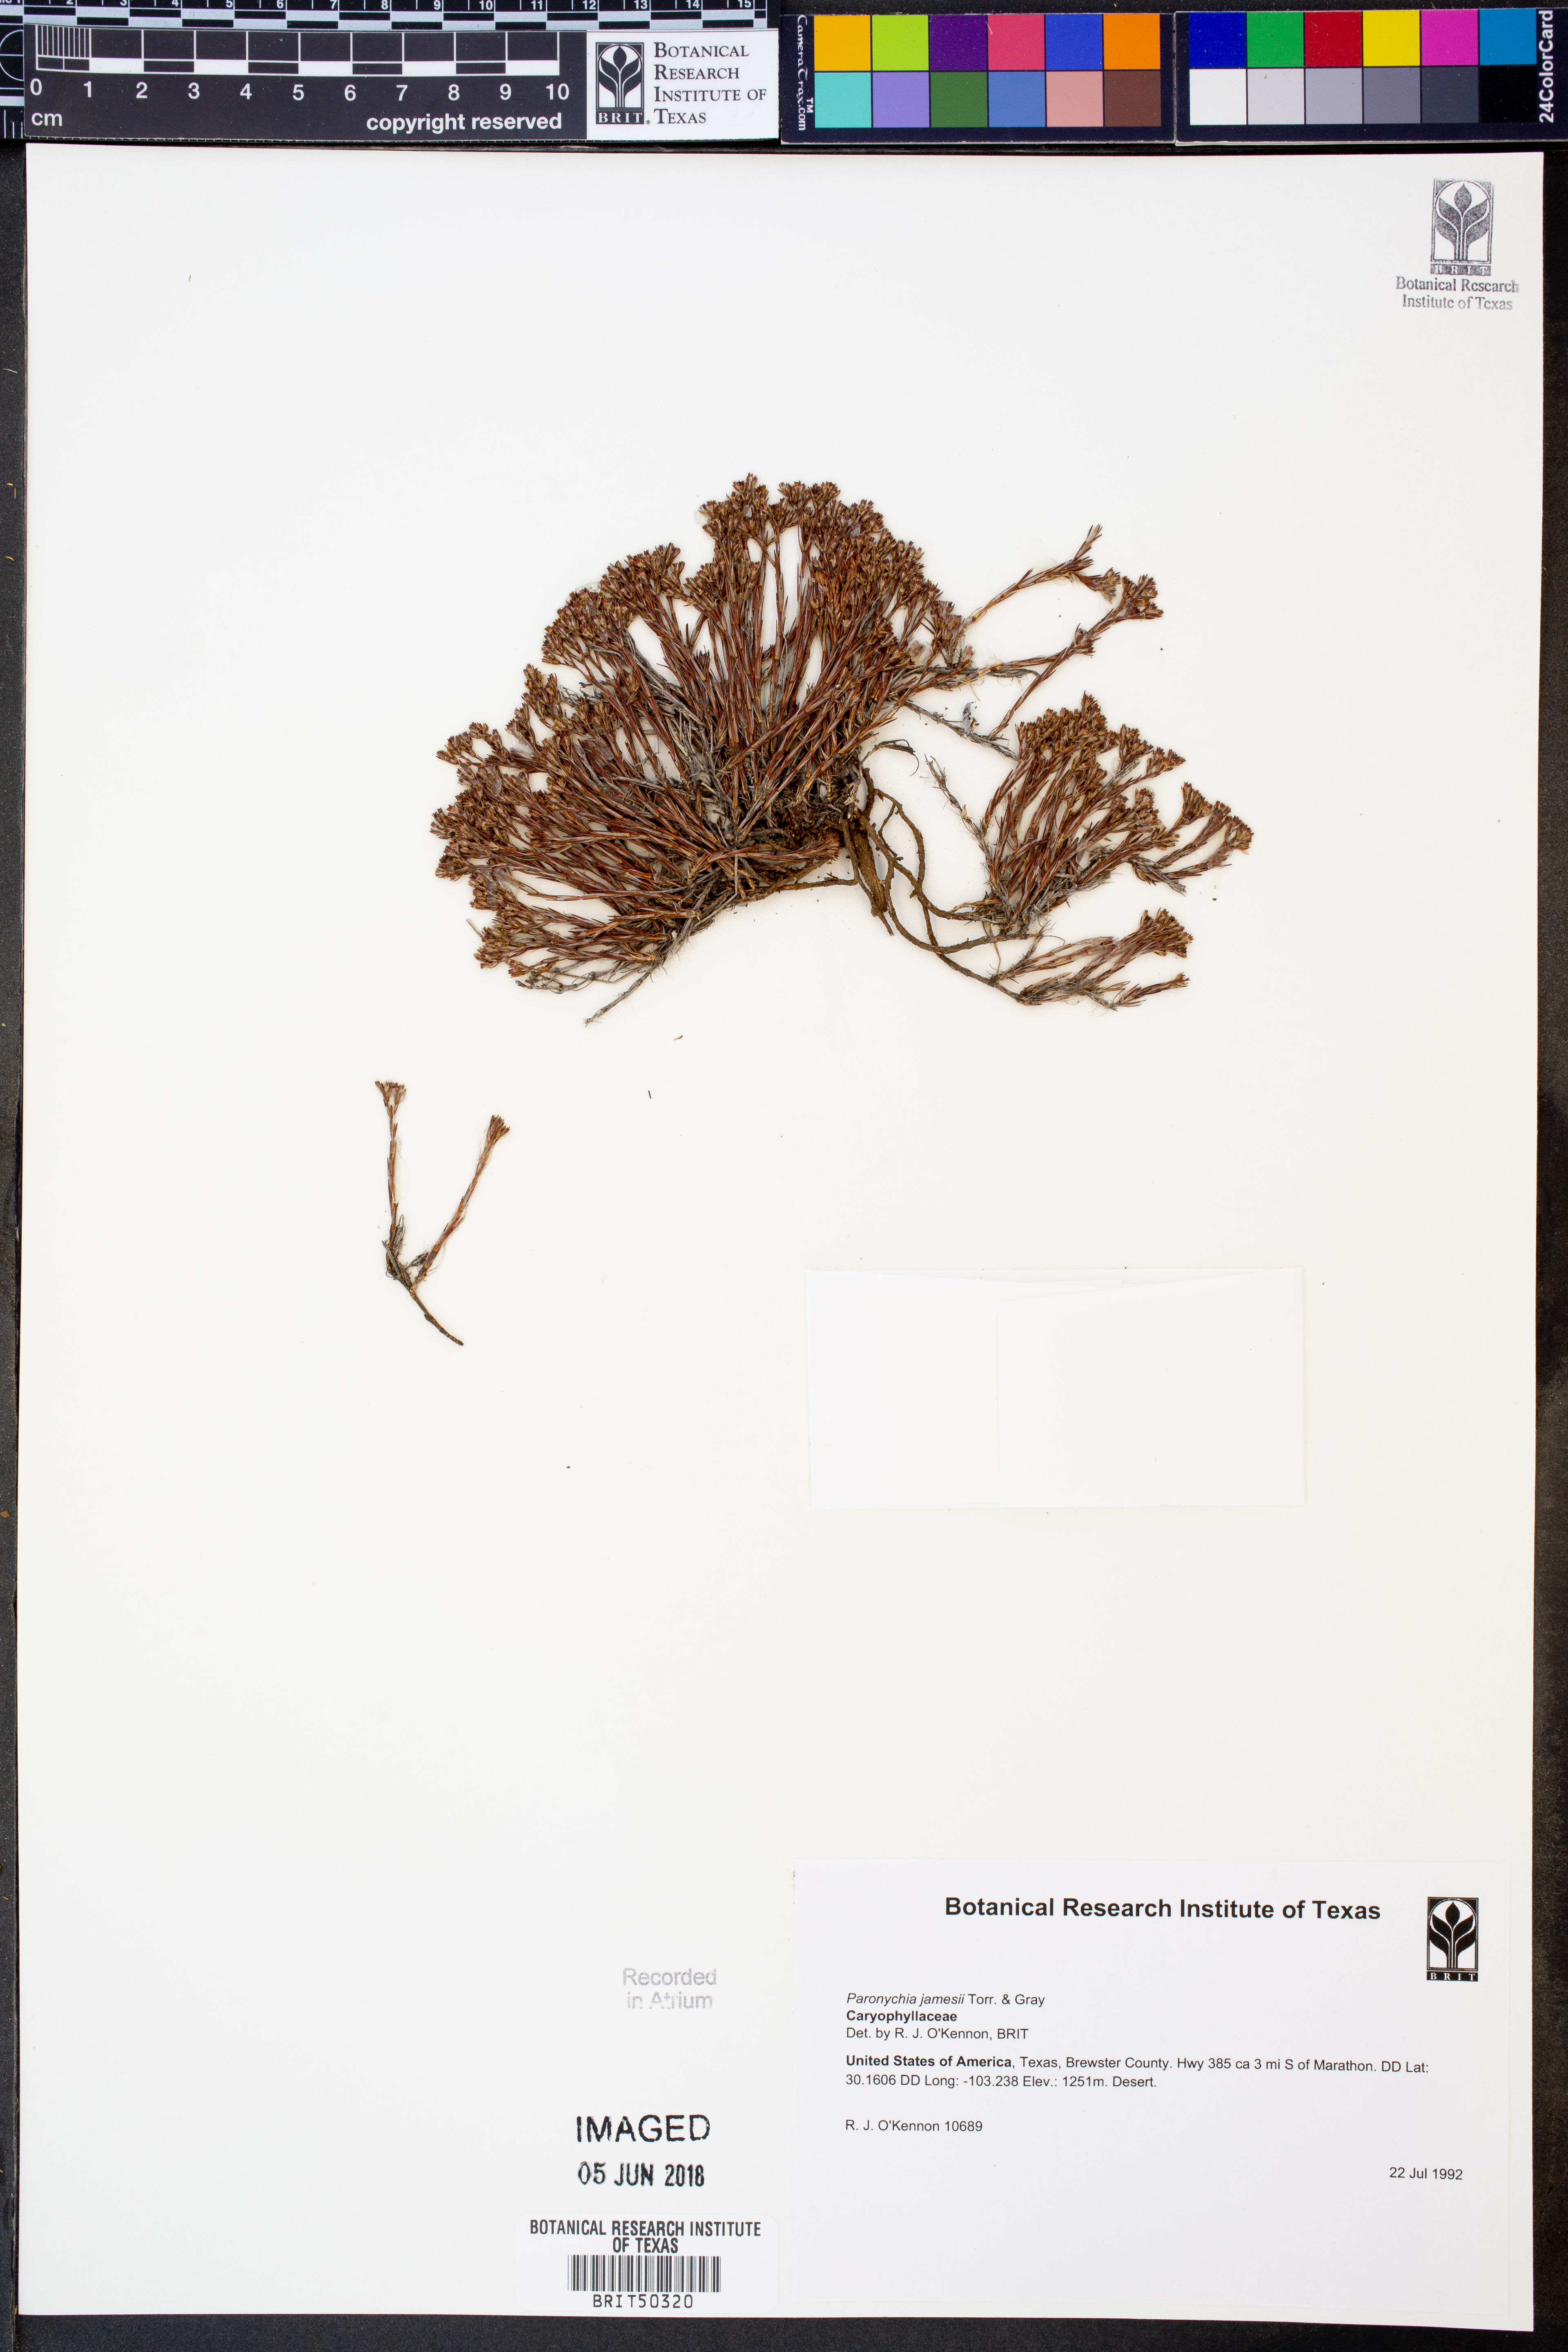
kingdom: Plantae
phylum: Tracheophyta
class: Magnoliopsida
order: Caryophyllales
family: Caryophyllaceae
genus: Paronychia
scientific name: Paronychia jamesii
